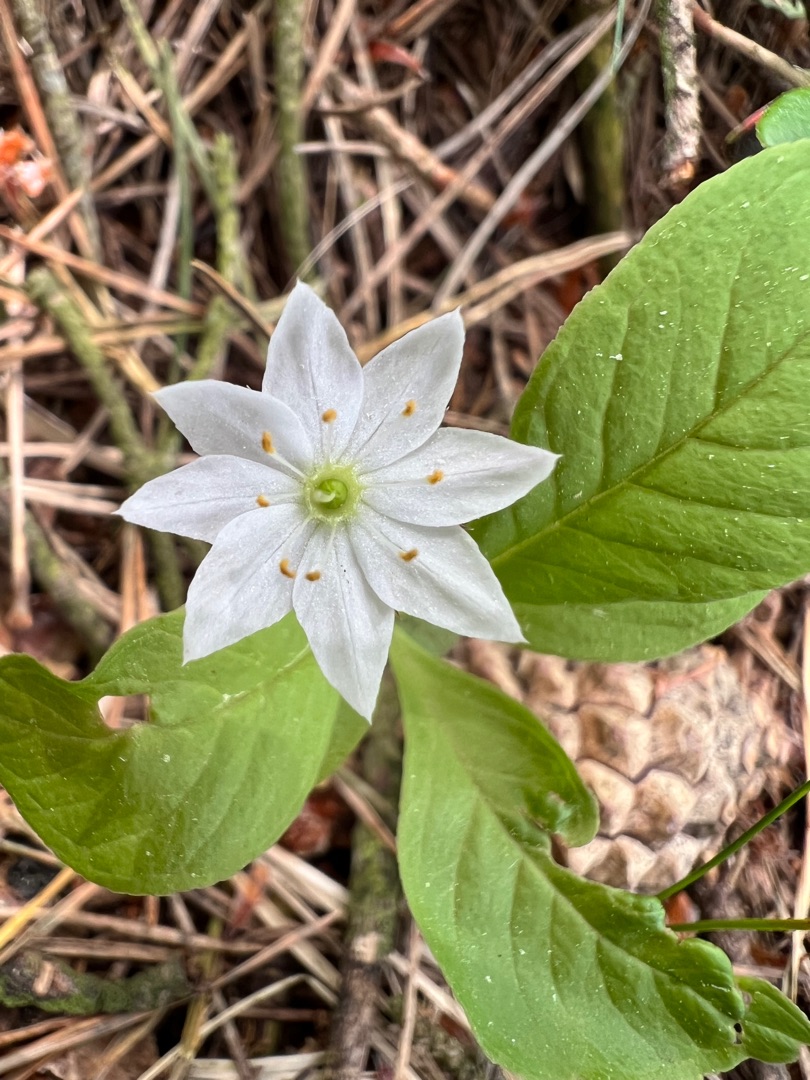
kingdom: Plantae
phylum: Tracheophyta
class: Magnoliopsida
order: Ericales
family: Primulaceae
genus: Lysimachia
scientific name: Lysimachia europaea
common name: Skovstjerne
